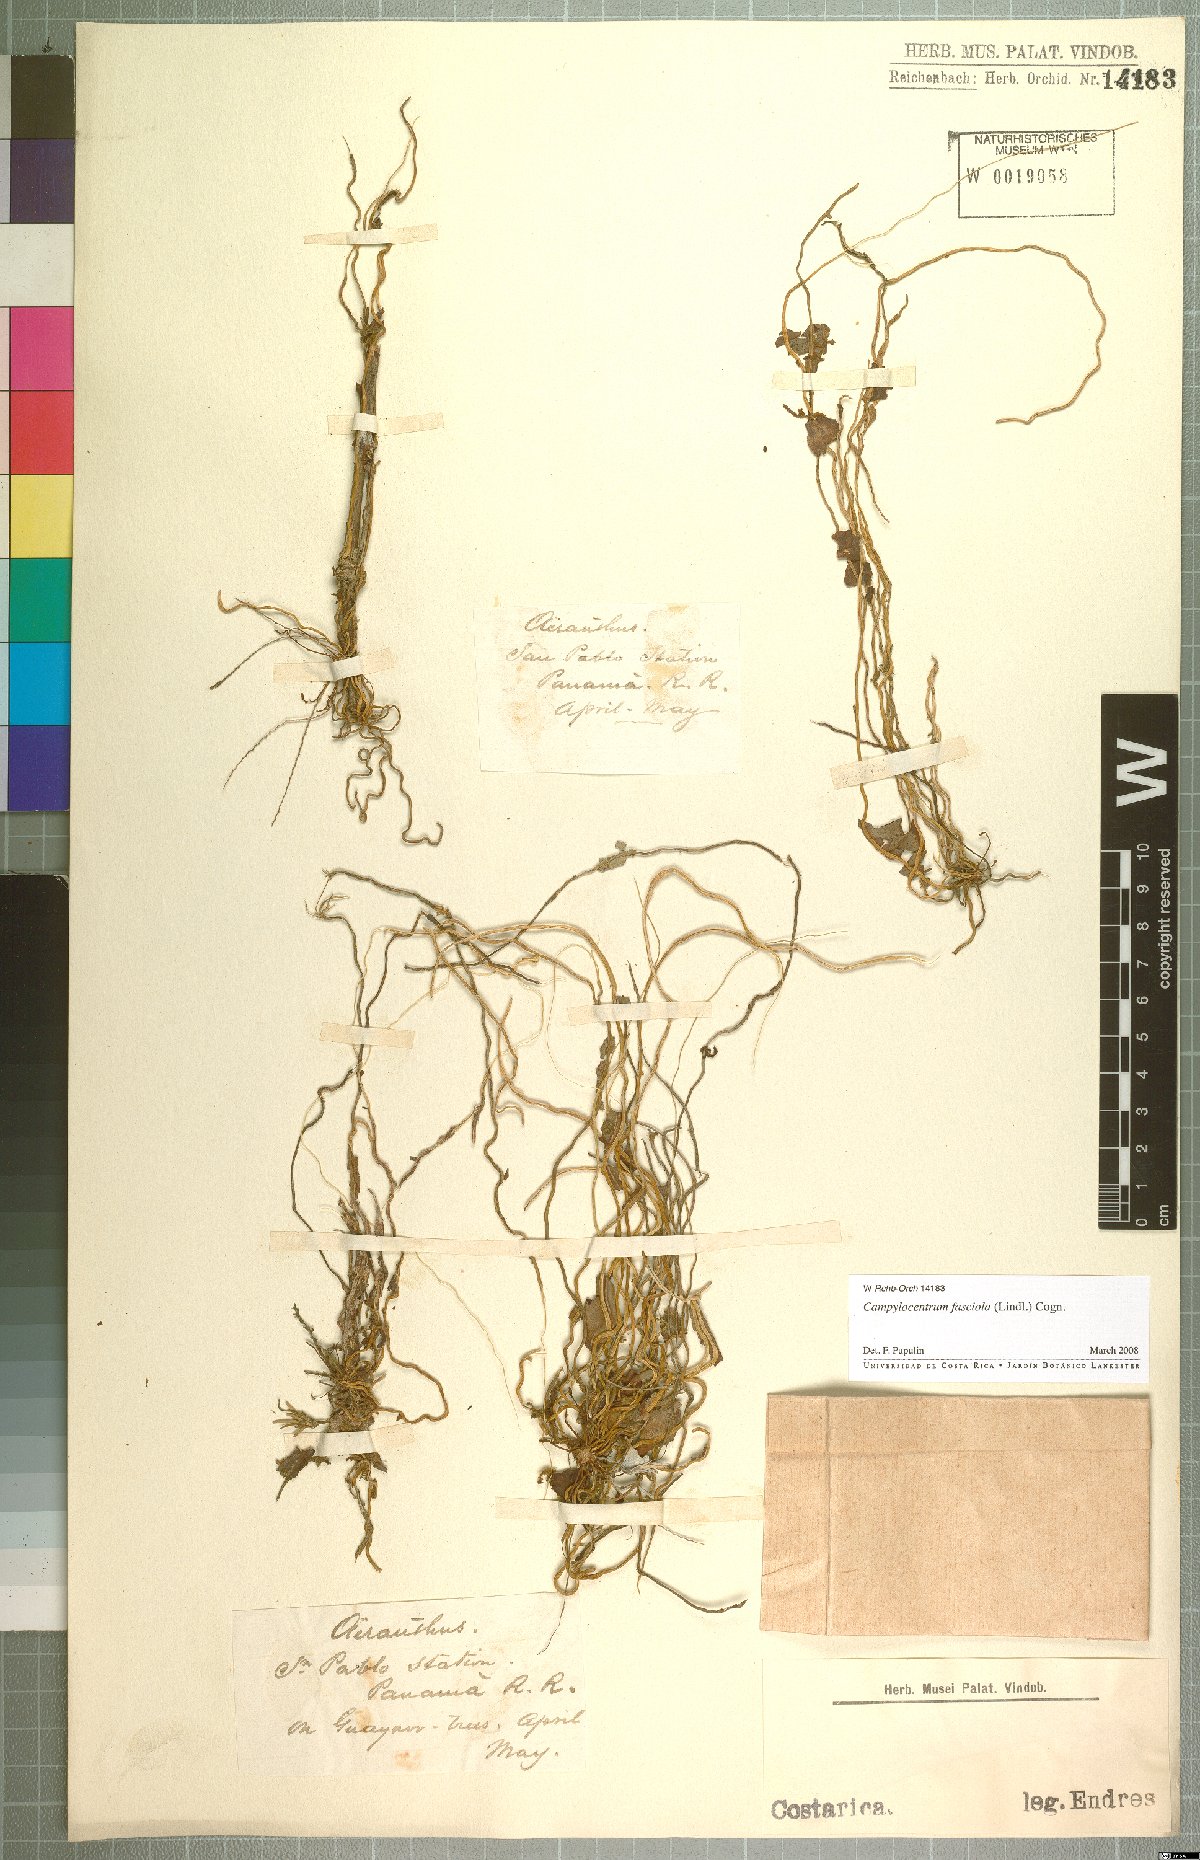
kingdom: Plantae
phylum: Tracheophyta
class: Liliopsida
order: Asparagales
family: Orchidaceae
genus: Campylocentrum
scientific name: Campylocentrum fasciola
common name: Arboreal bentspur orchid
